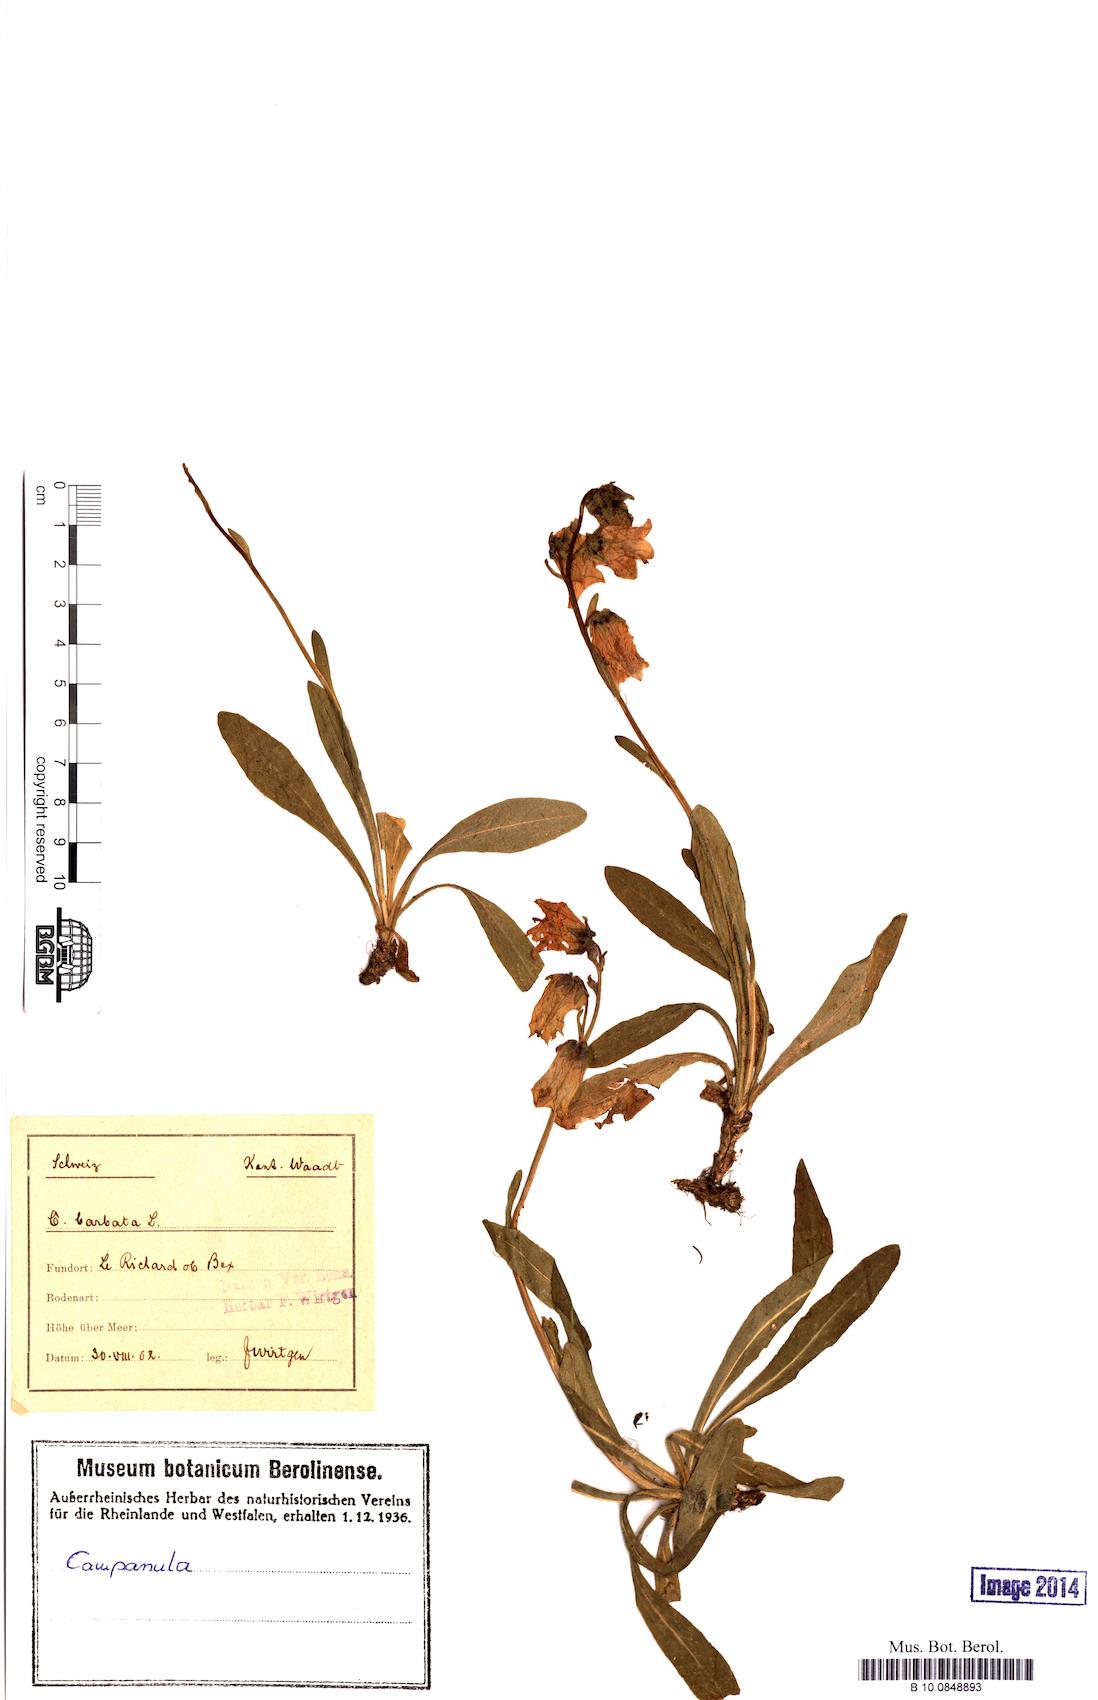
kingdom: Plantae
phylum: Tracheophyta
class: Magnoliopsida
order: Asterales
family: Campanulaceae
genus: Campanula
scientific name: Campanula barbata
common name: Bearded bellflower
